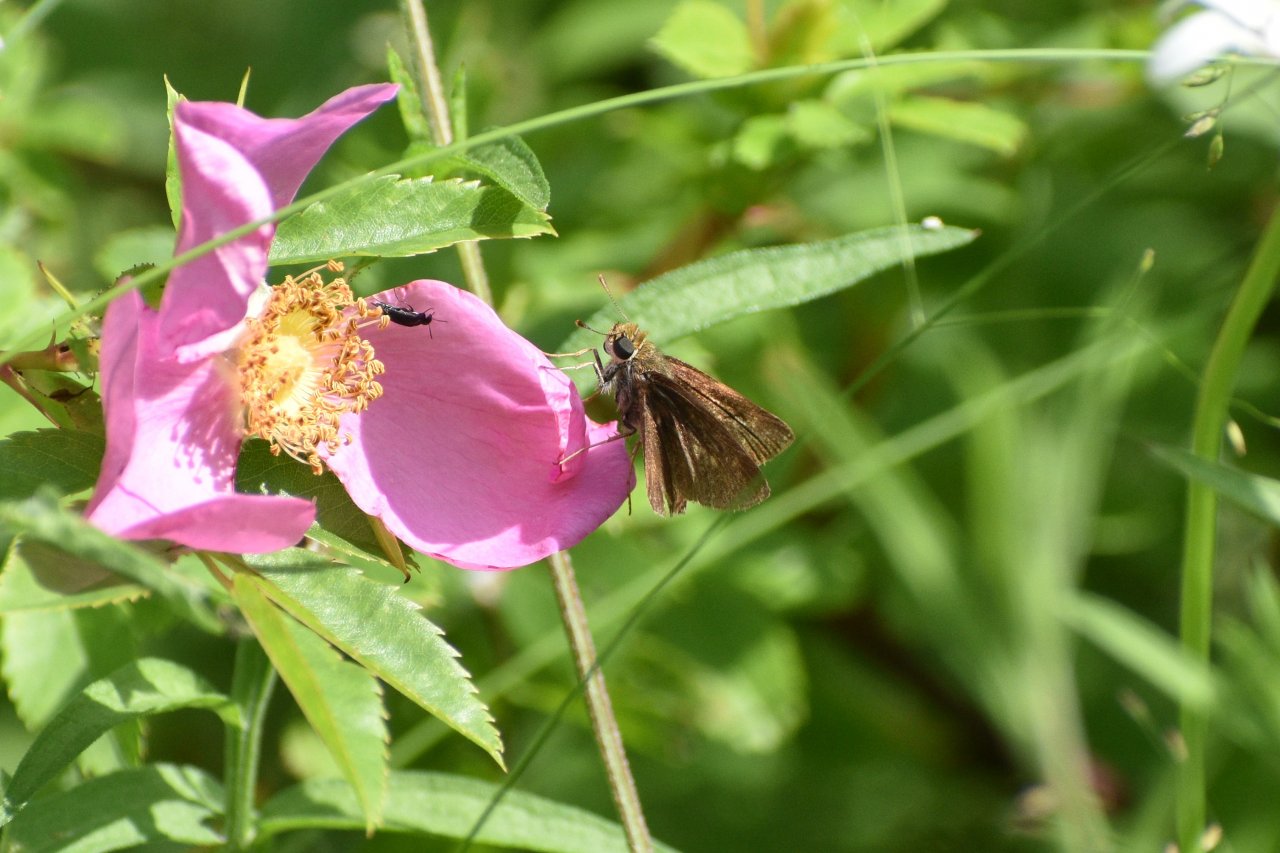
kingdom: Animalia
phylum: Arthropoda
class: Insecta
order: Lepidoptera
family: Hesperiidae
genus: Euphyes
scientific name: Euphyes vestris
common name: Dun Skipper
